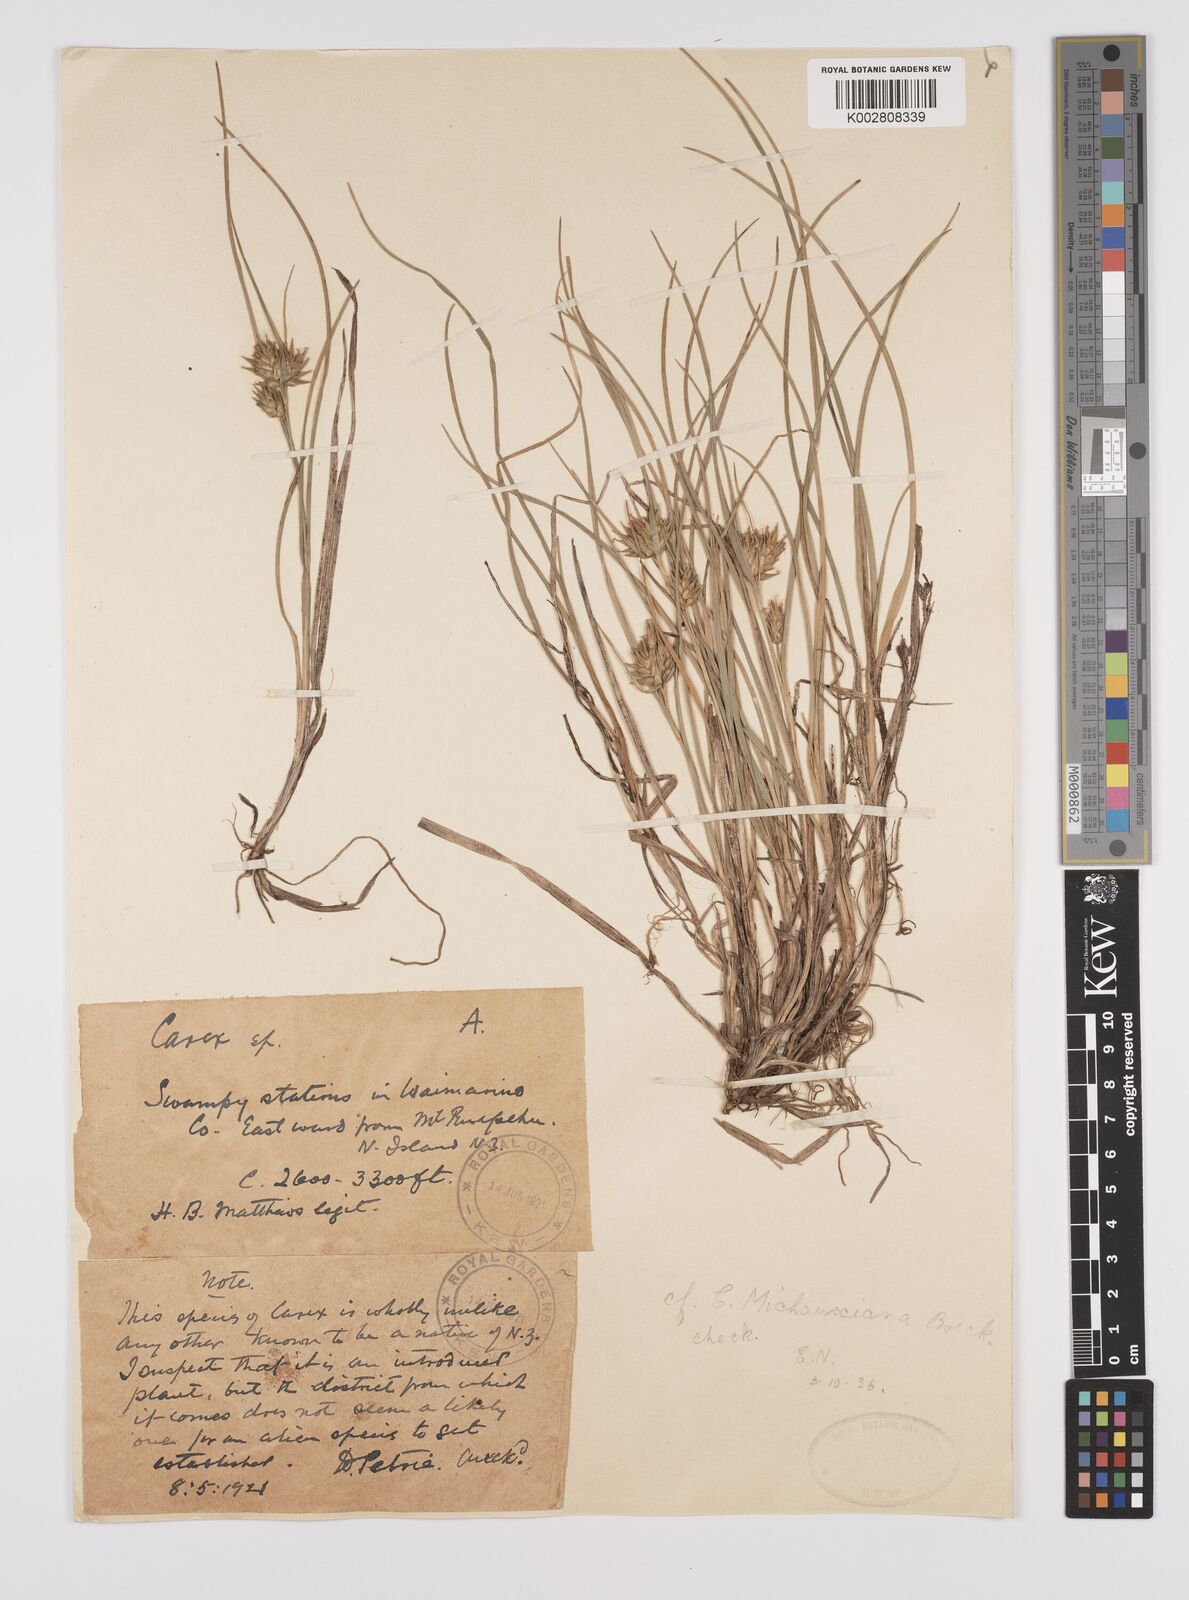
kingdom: Plantae
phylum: Tracheophyta
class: Liliopsida
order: Poales
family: Cyperaceae
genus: Carex
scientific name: Carex paniculata
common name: Greater tussock-sedge
